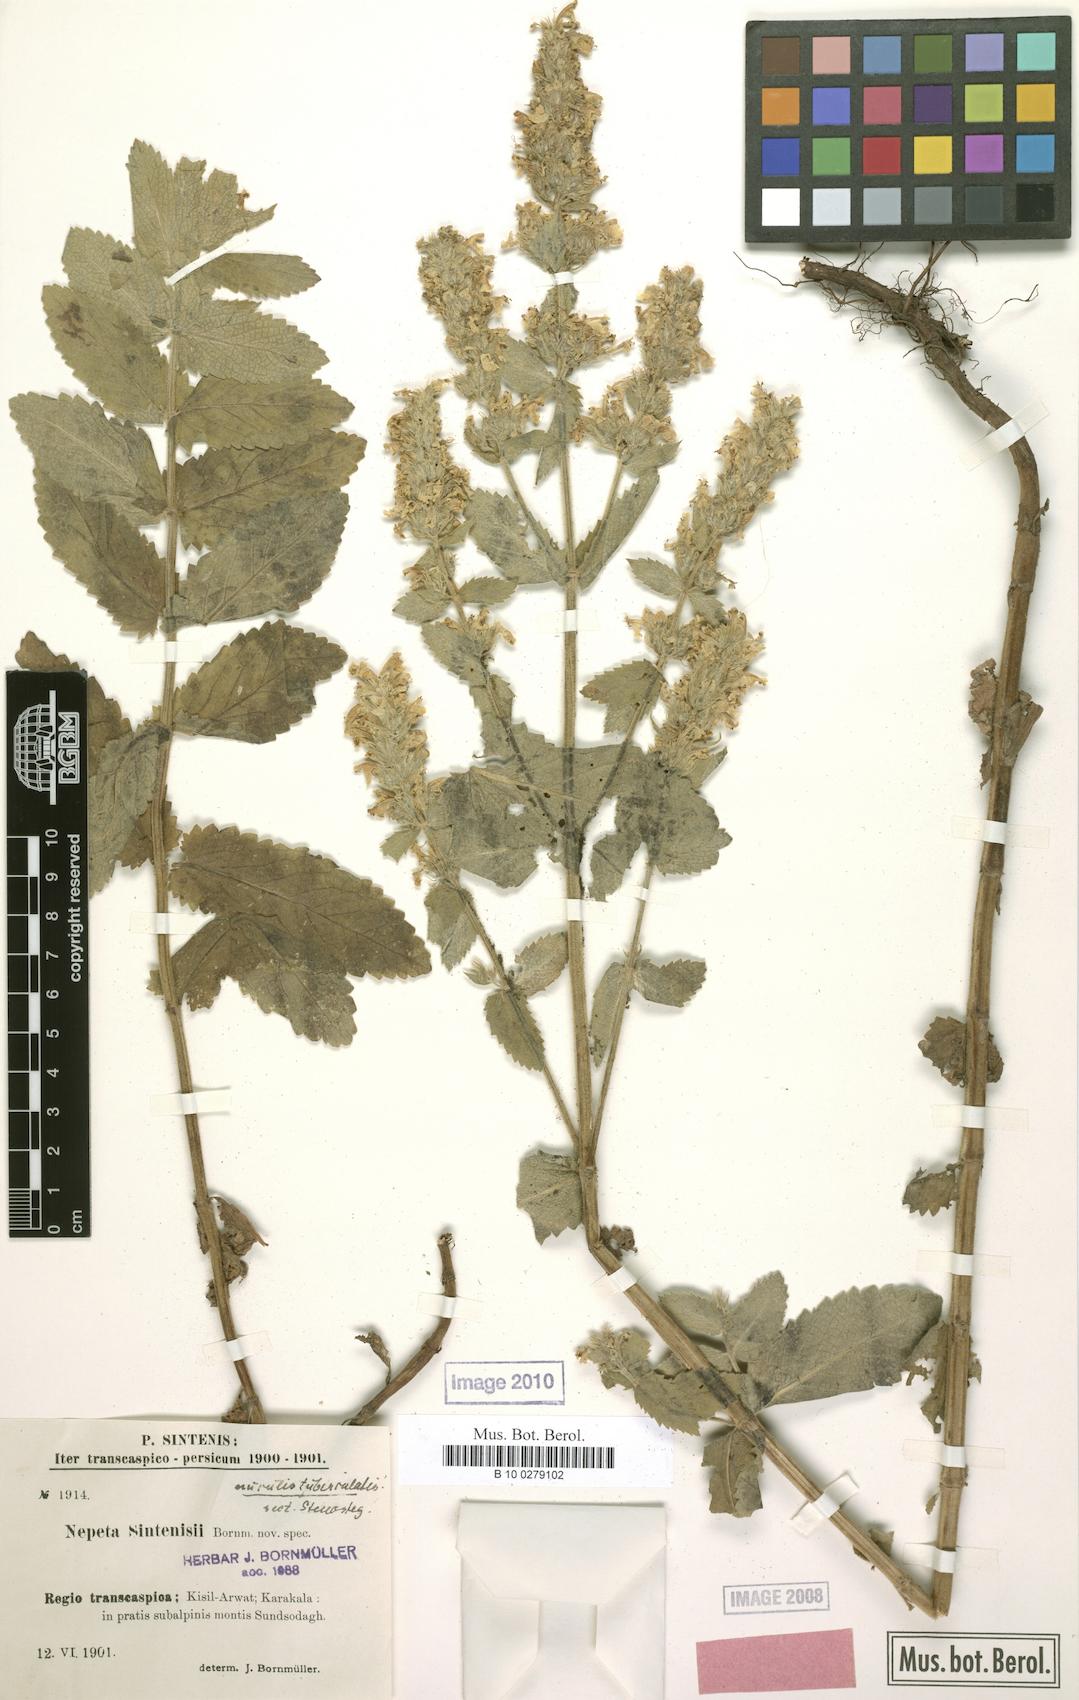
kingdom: Plantae
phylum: Tracheophyta
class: Magnoliopsida
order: Lamiales
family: Lamiaceae
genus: Nepeta
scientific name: Nepeta bodeana
